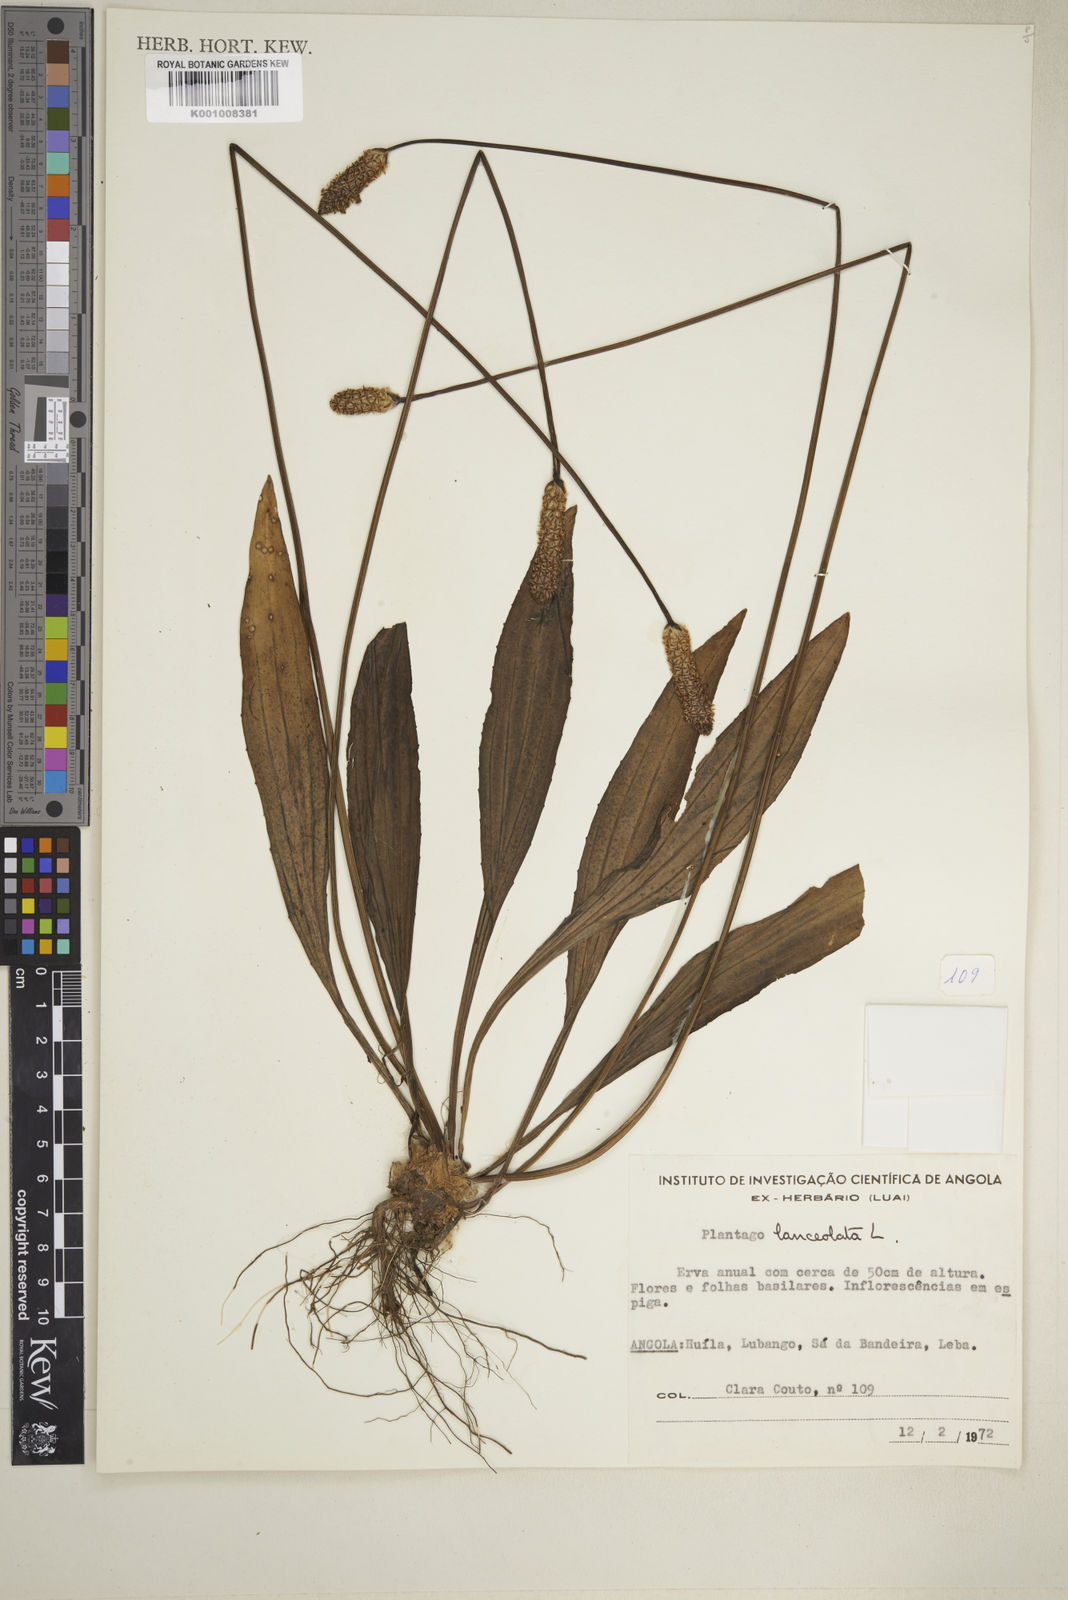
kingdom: Plantae
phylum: Tracheophyta
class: Magnoliopsida
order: Lamiales
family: Plantaginaceae
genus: Plantago
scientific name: Plantago lanceolata
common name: Ribwort plantain
